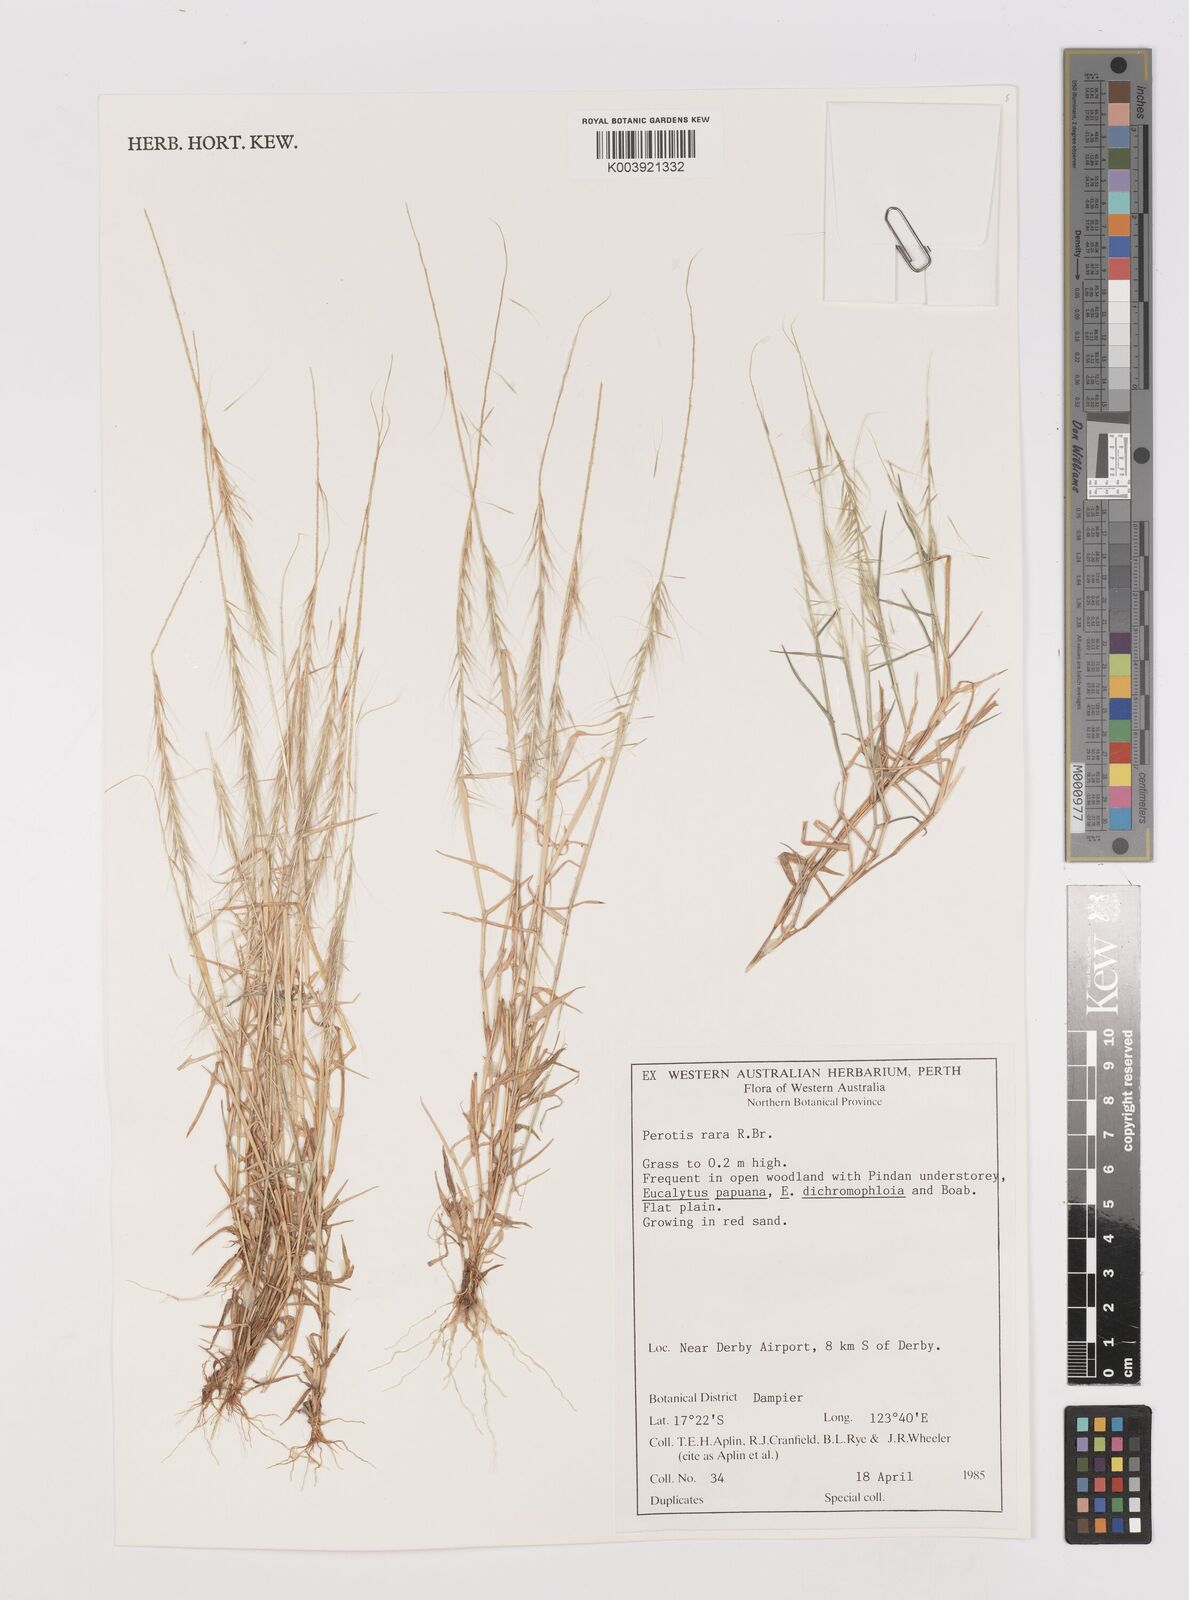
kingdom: Plantae
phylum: Tracheophyta
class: Liliopsida
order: Poales
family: Poaceae
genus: Perotis
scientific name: Perotis rara
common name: Comet grass
